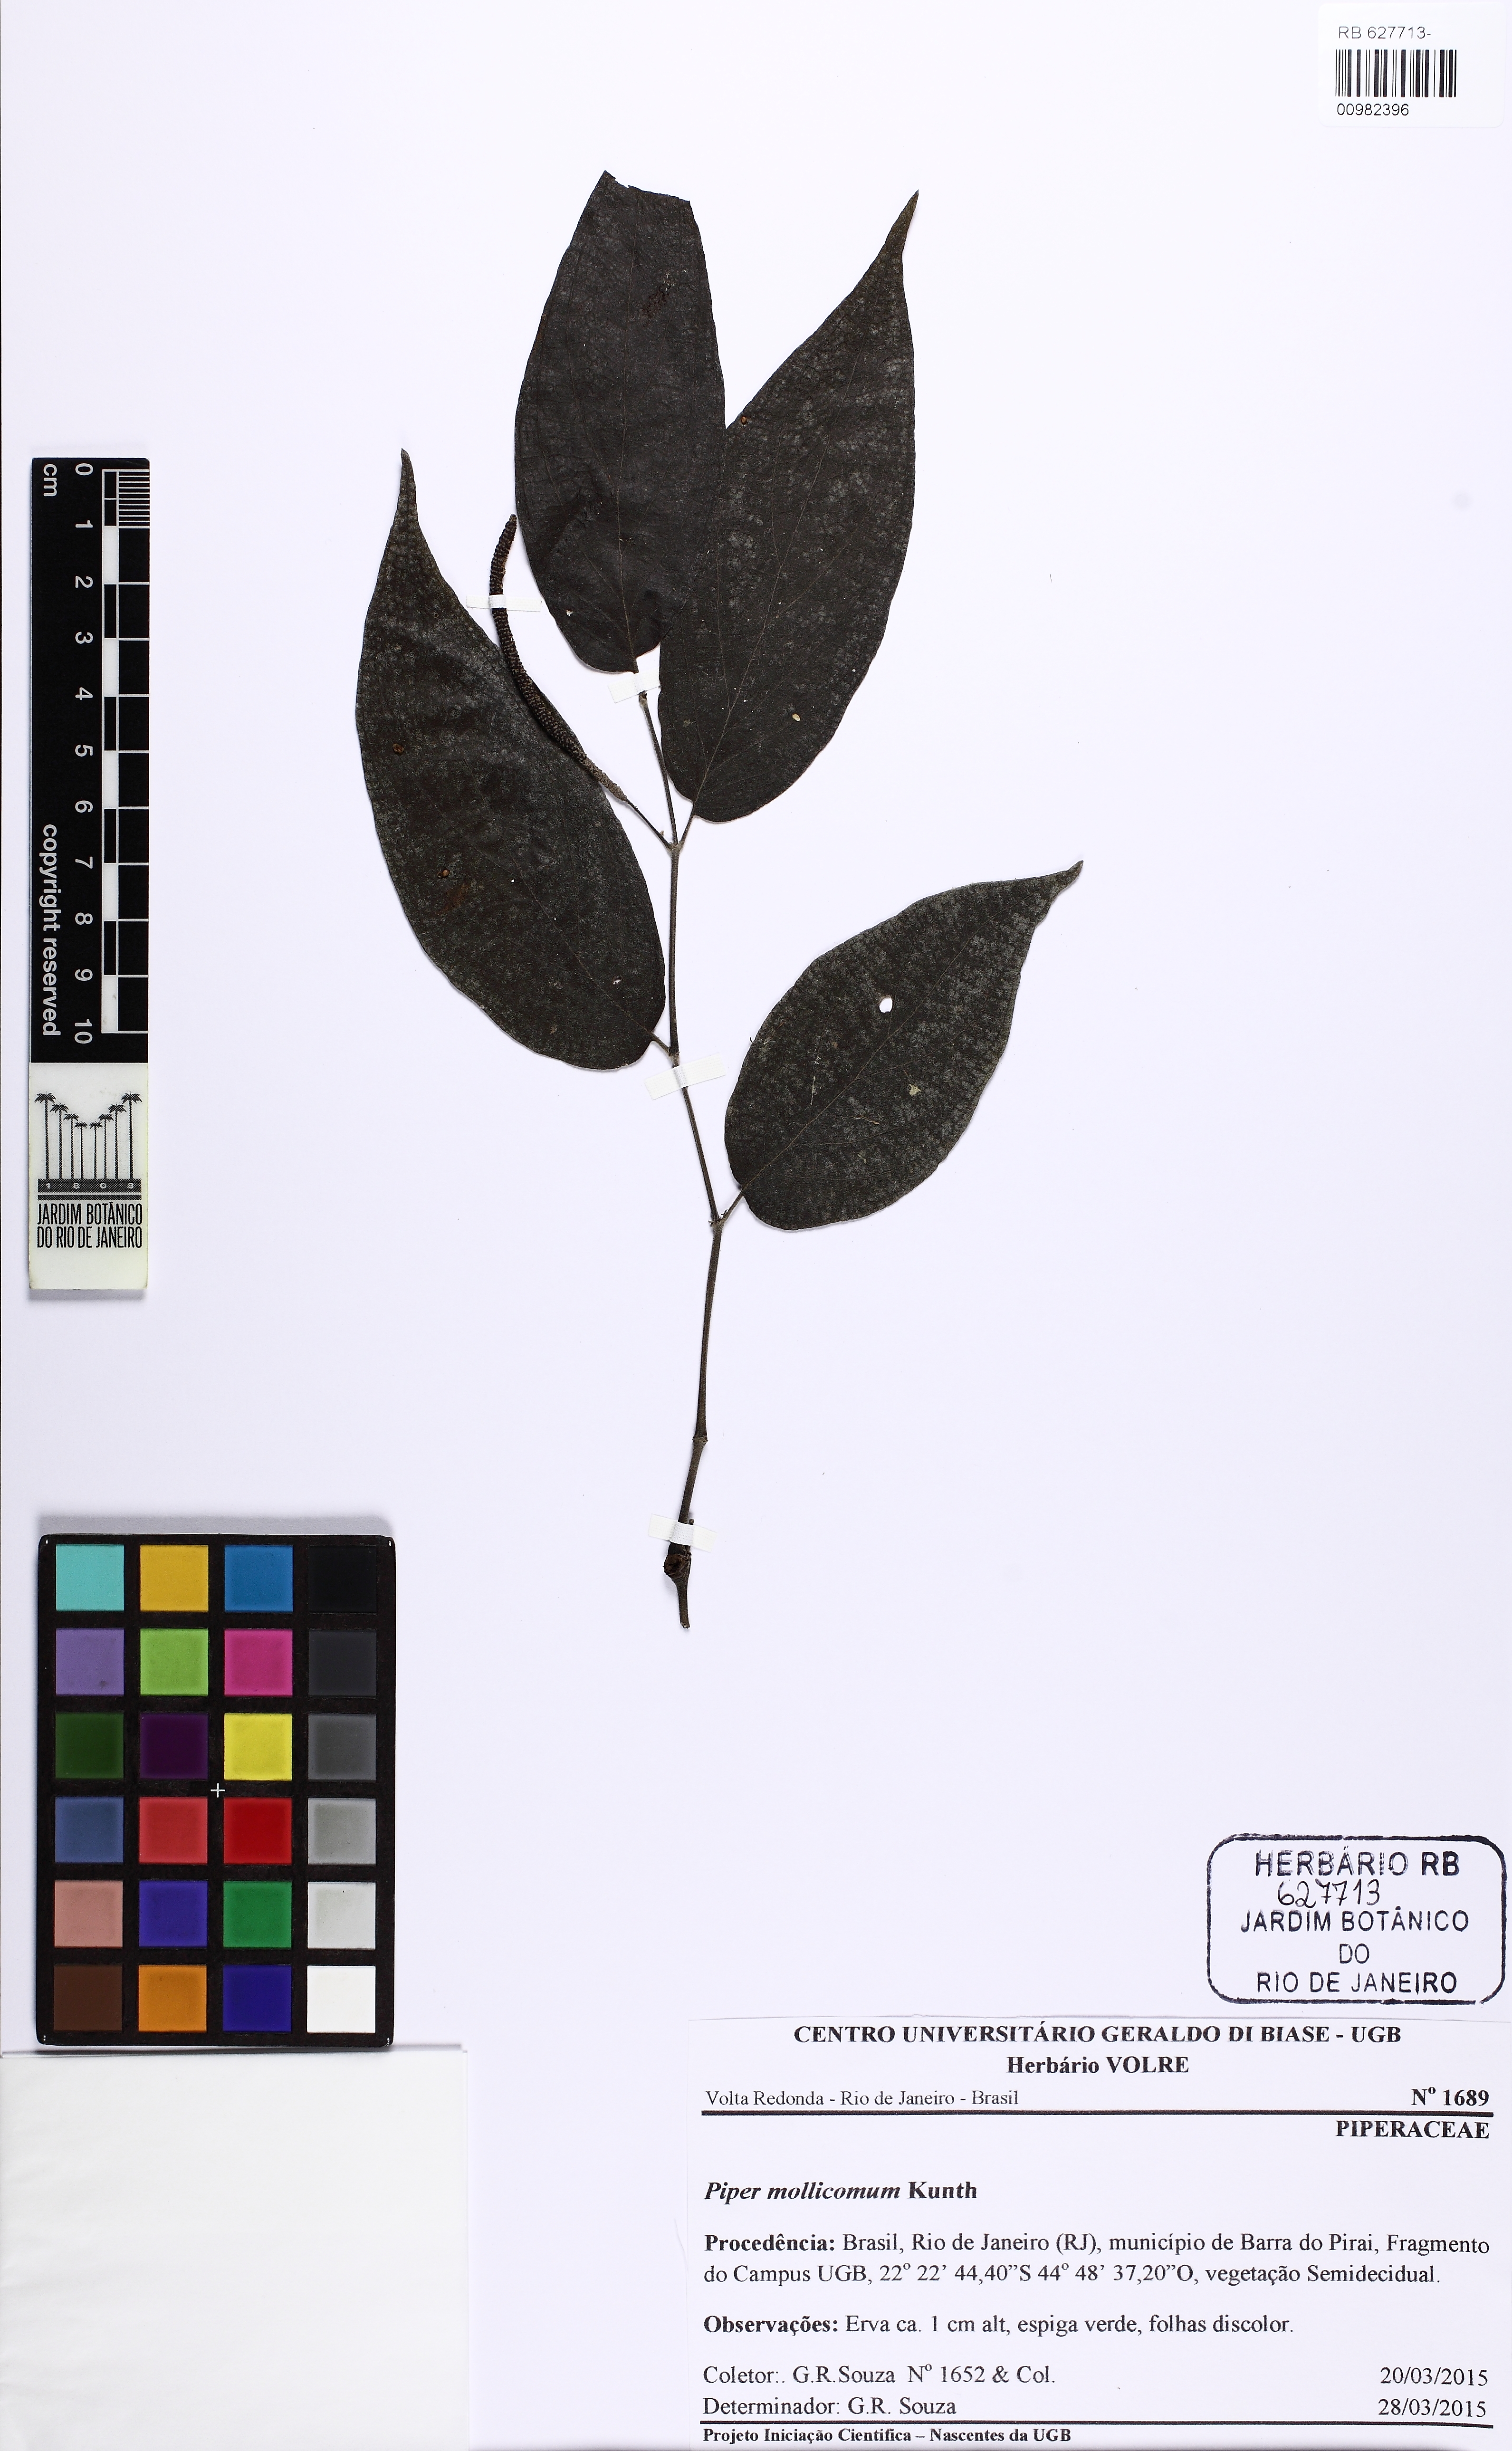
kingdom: Plantae
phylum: Tracheophyta
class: Magnoliopsida
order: Piperales
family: Piperaceae
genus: Piper
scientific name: Piper mollicomum
